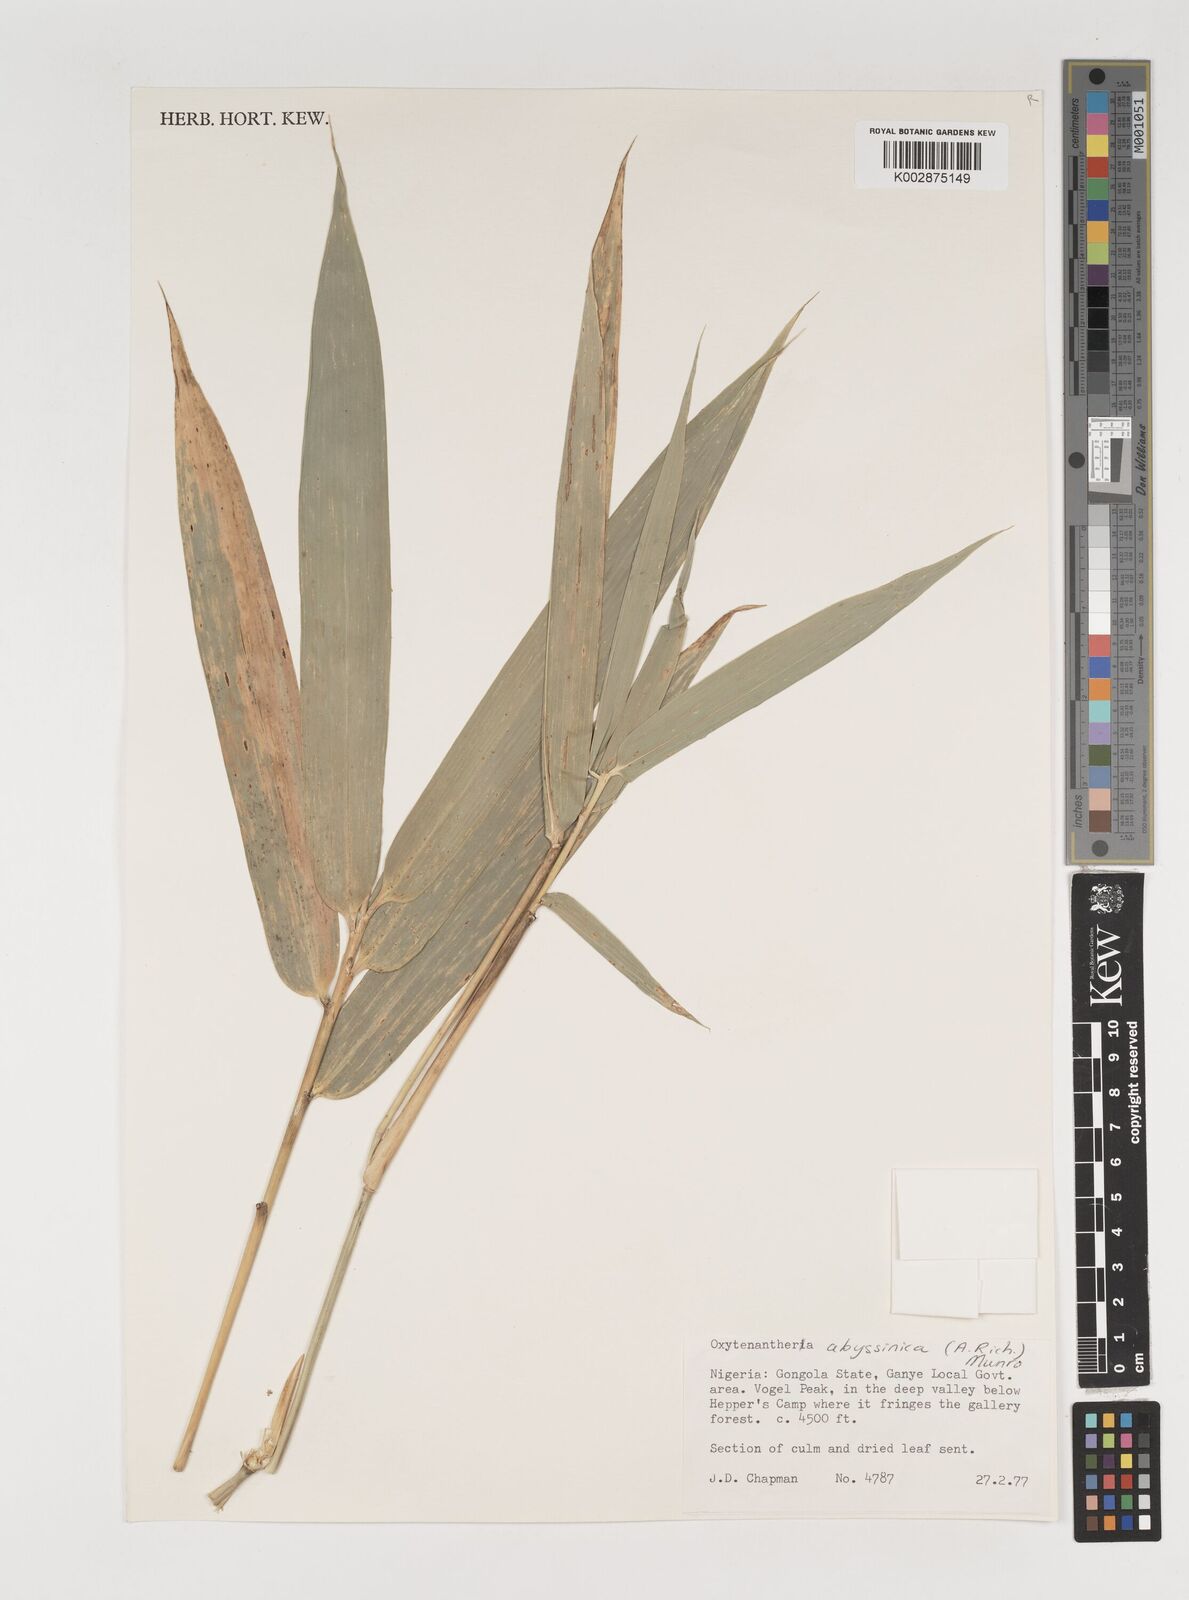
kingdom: Plantae
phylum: Tracheophyta
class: Liliopsida
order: Poales
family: Poaceae
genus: Oxytenanthera
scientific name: Oxytenanthera abyssinica
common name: Wine bamboo
